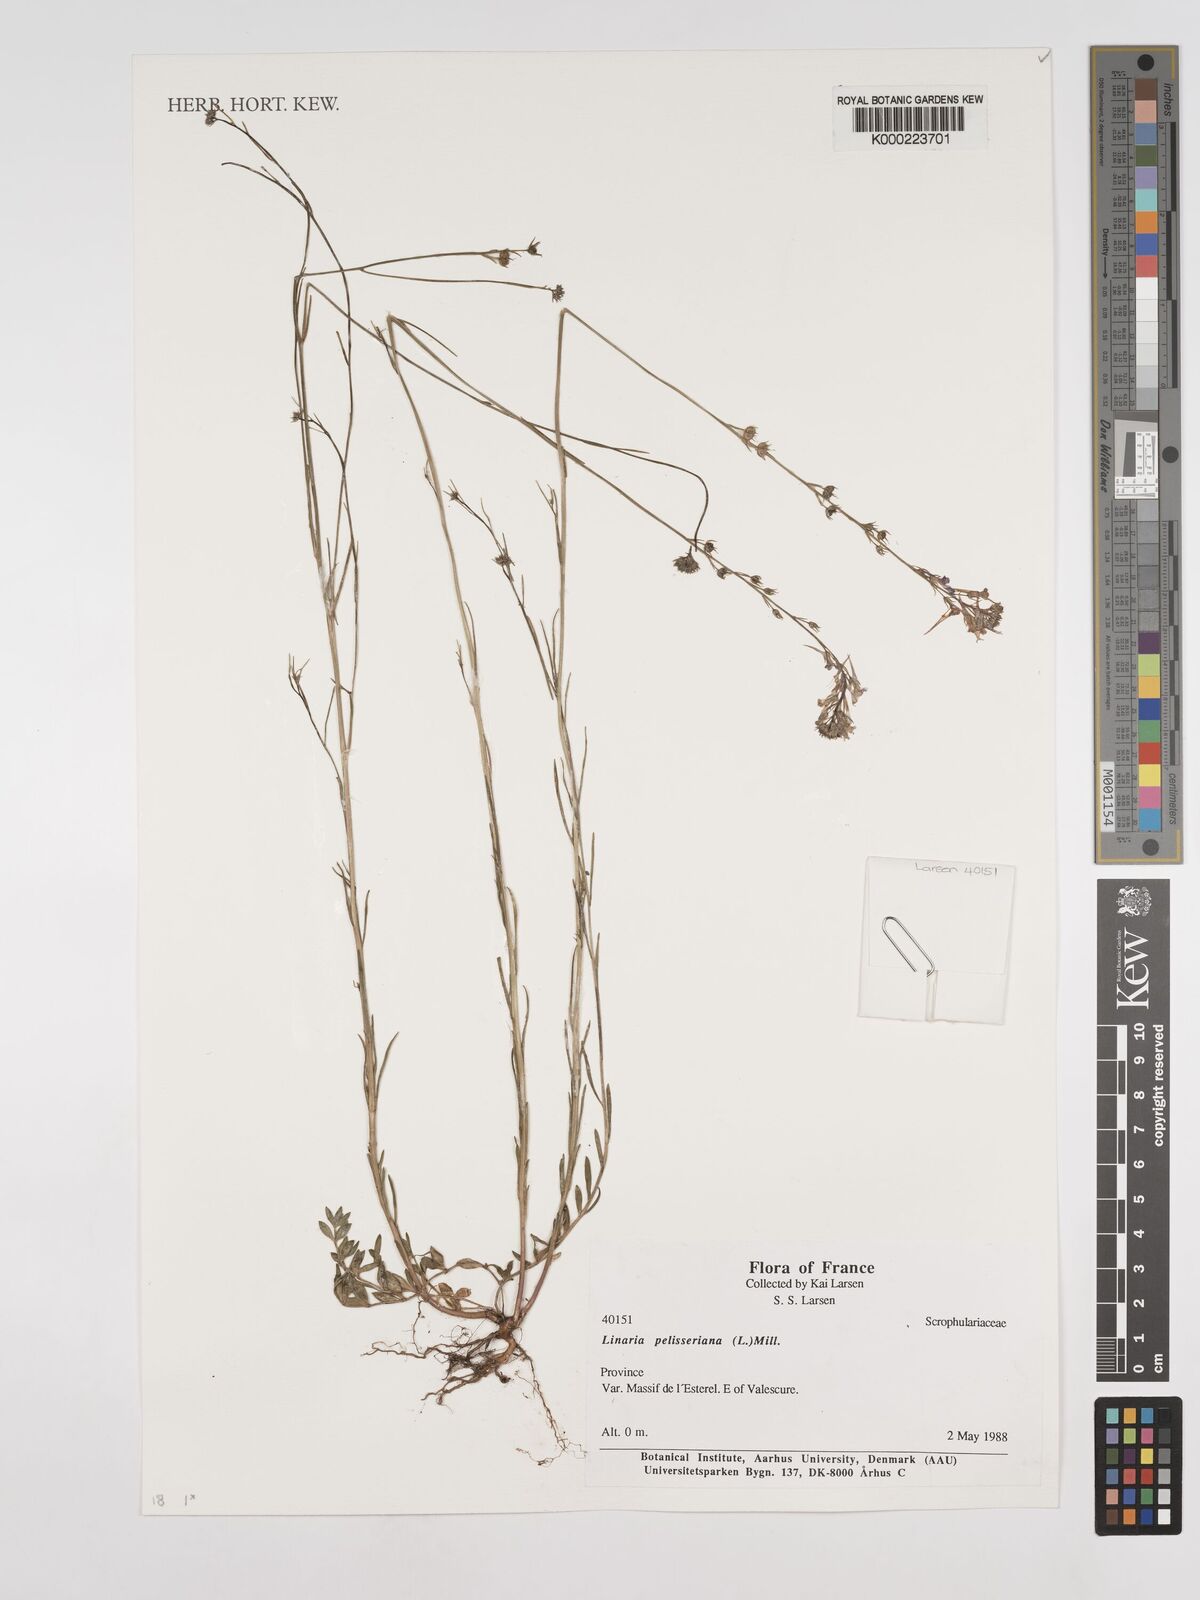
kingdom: Plantae
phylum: Tracheophyta
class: Magnoliopsida
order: Lamiales
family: Linderniaceae
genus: Lindernia
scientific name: Lindernia
